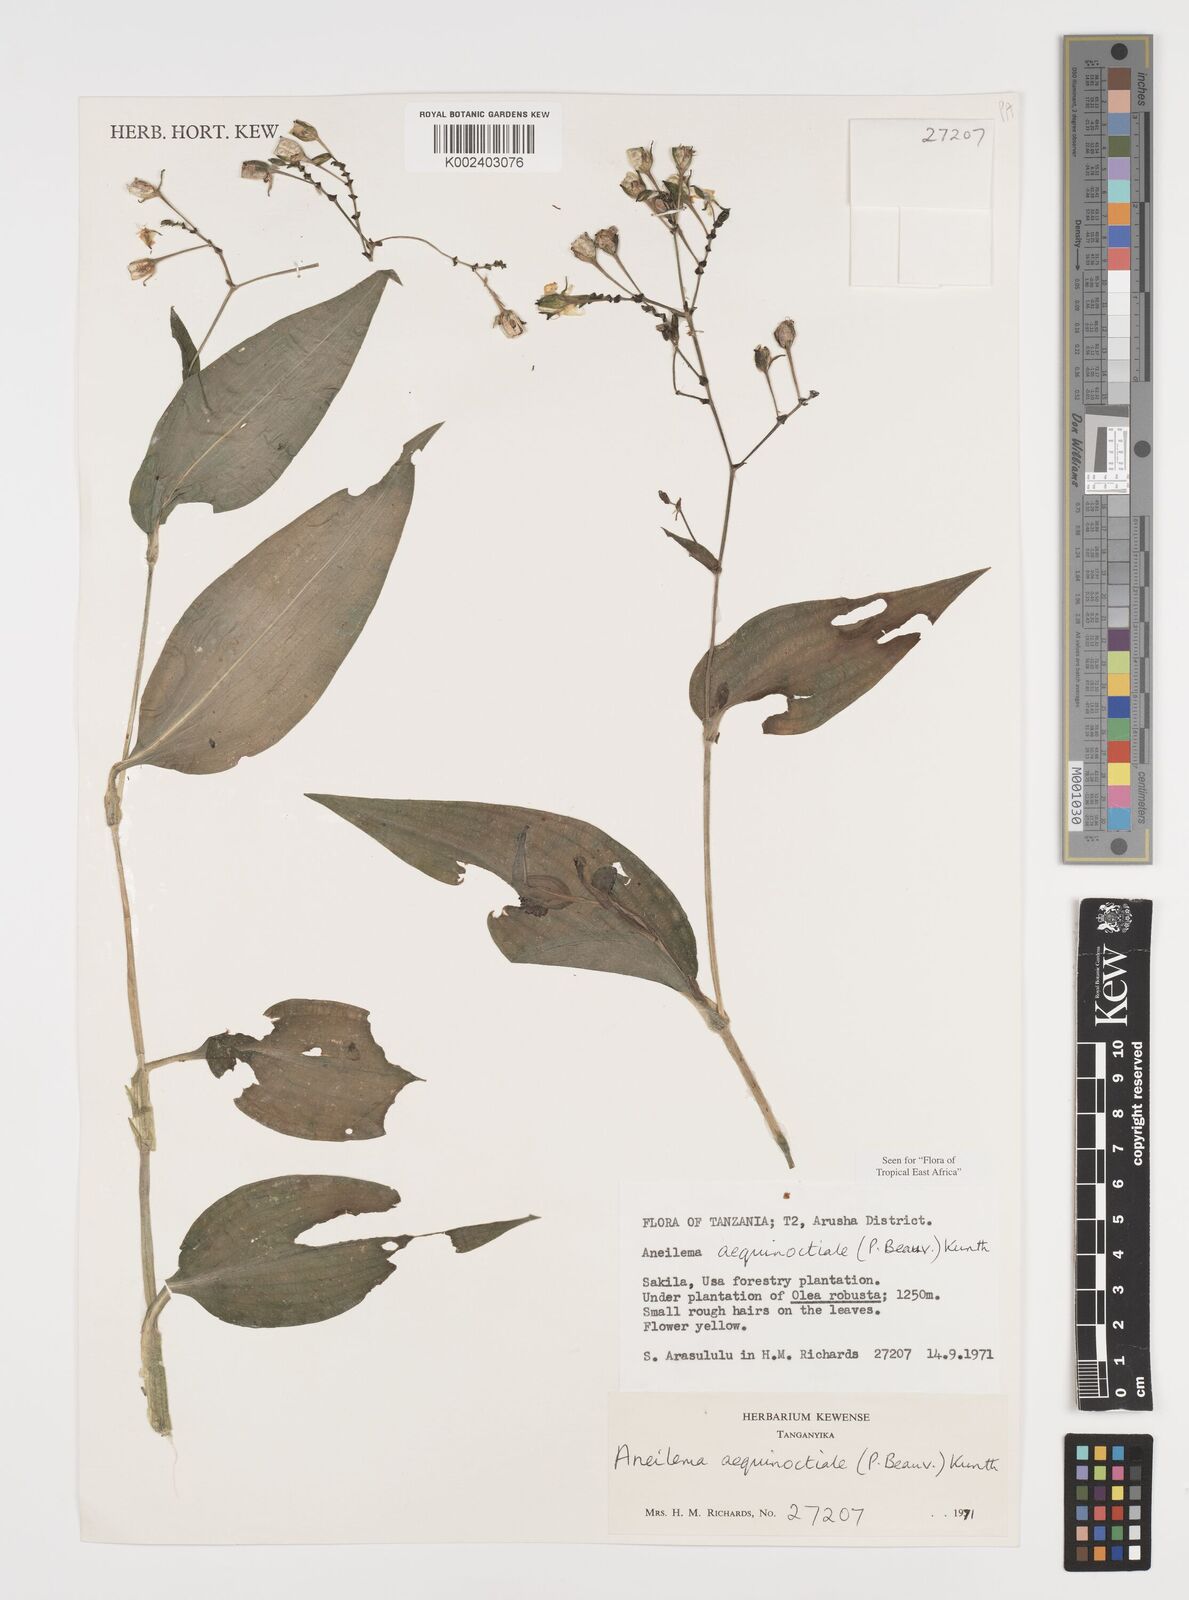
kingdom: Plantae
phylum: Tracheophyta
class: Liliopsida
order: Commelinales
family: Commelinaceae
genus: Aneilema
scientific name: Aneilema aequinoctiale
